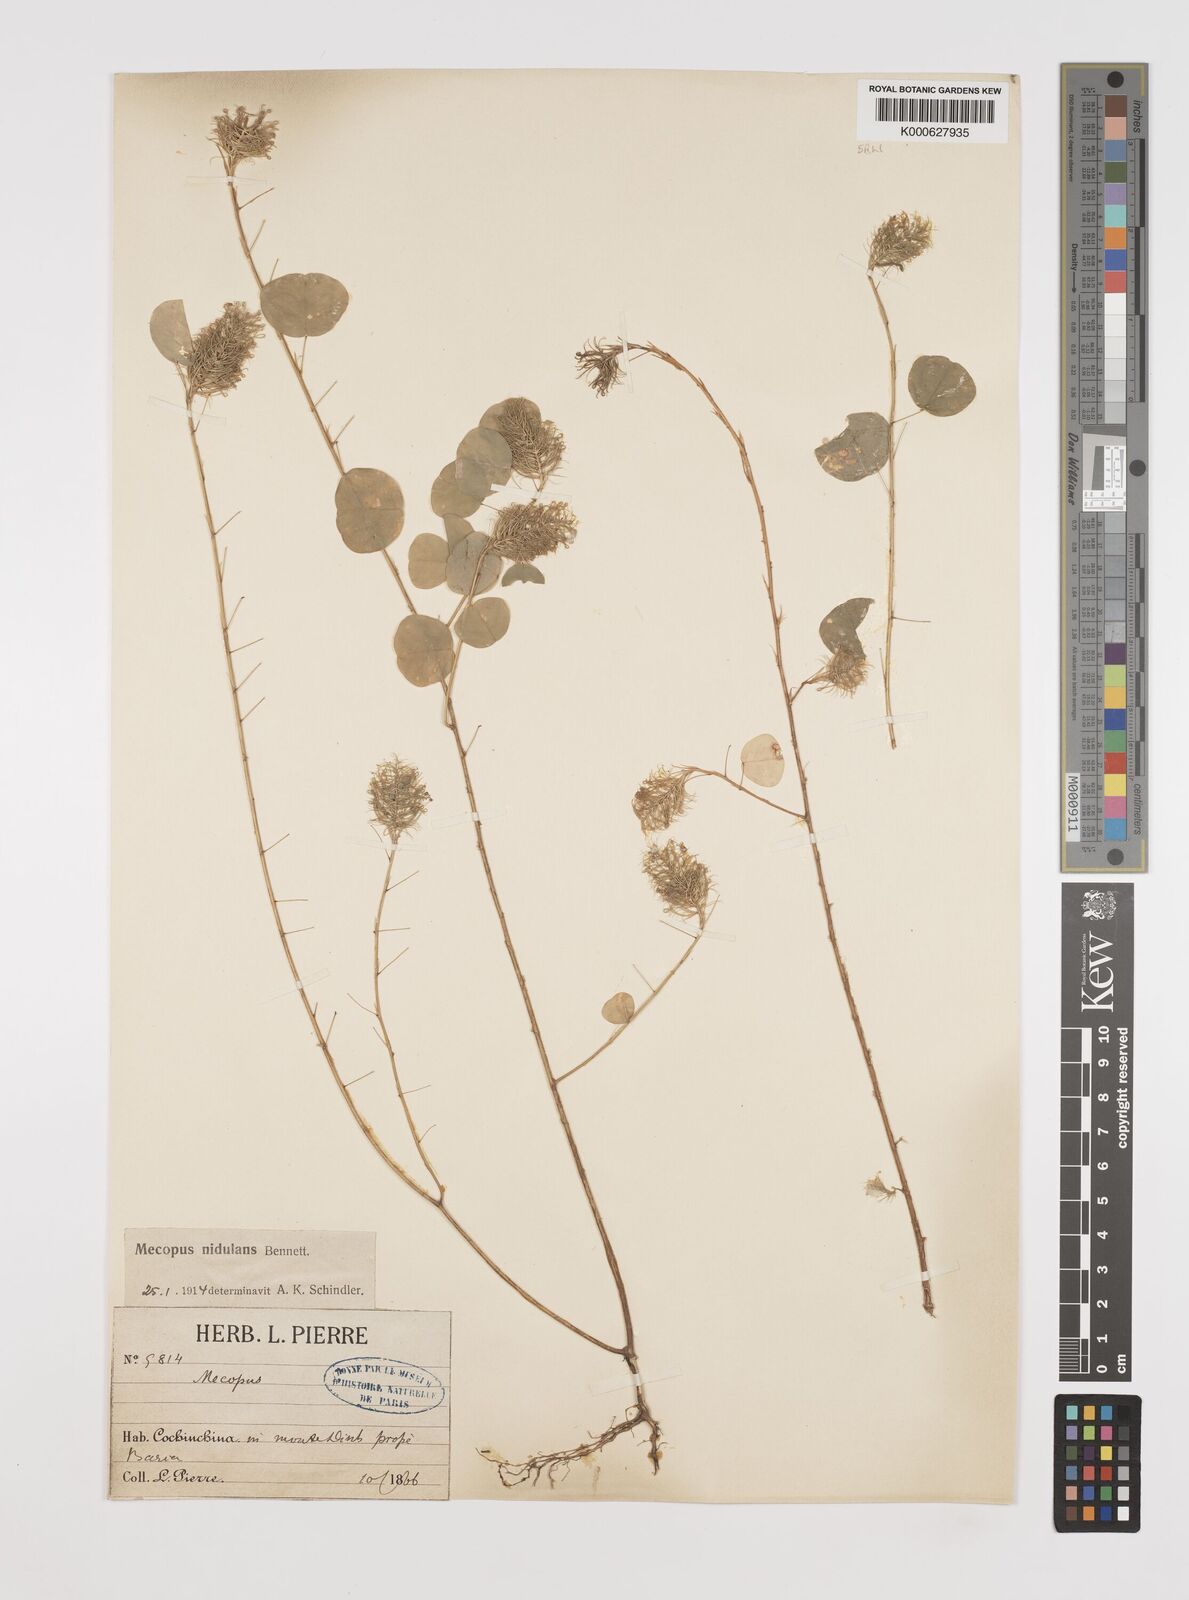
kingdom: Plantae
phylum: Tracheophyta
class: Magnoliopsida
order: Fabales
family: Fabaceae
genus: Mecopus
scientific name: Mecopus nidulans
